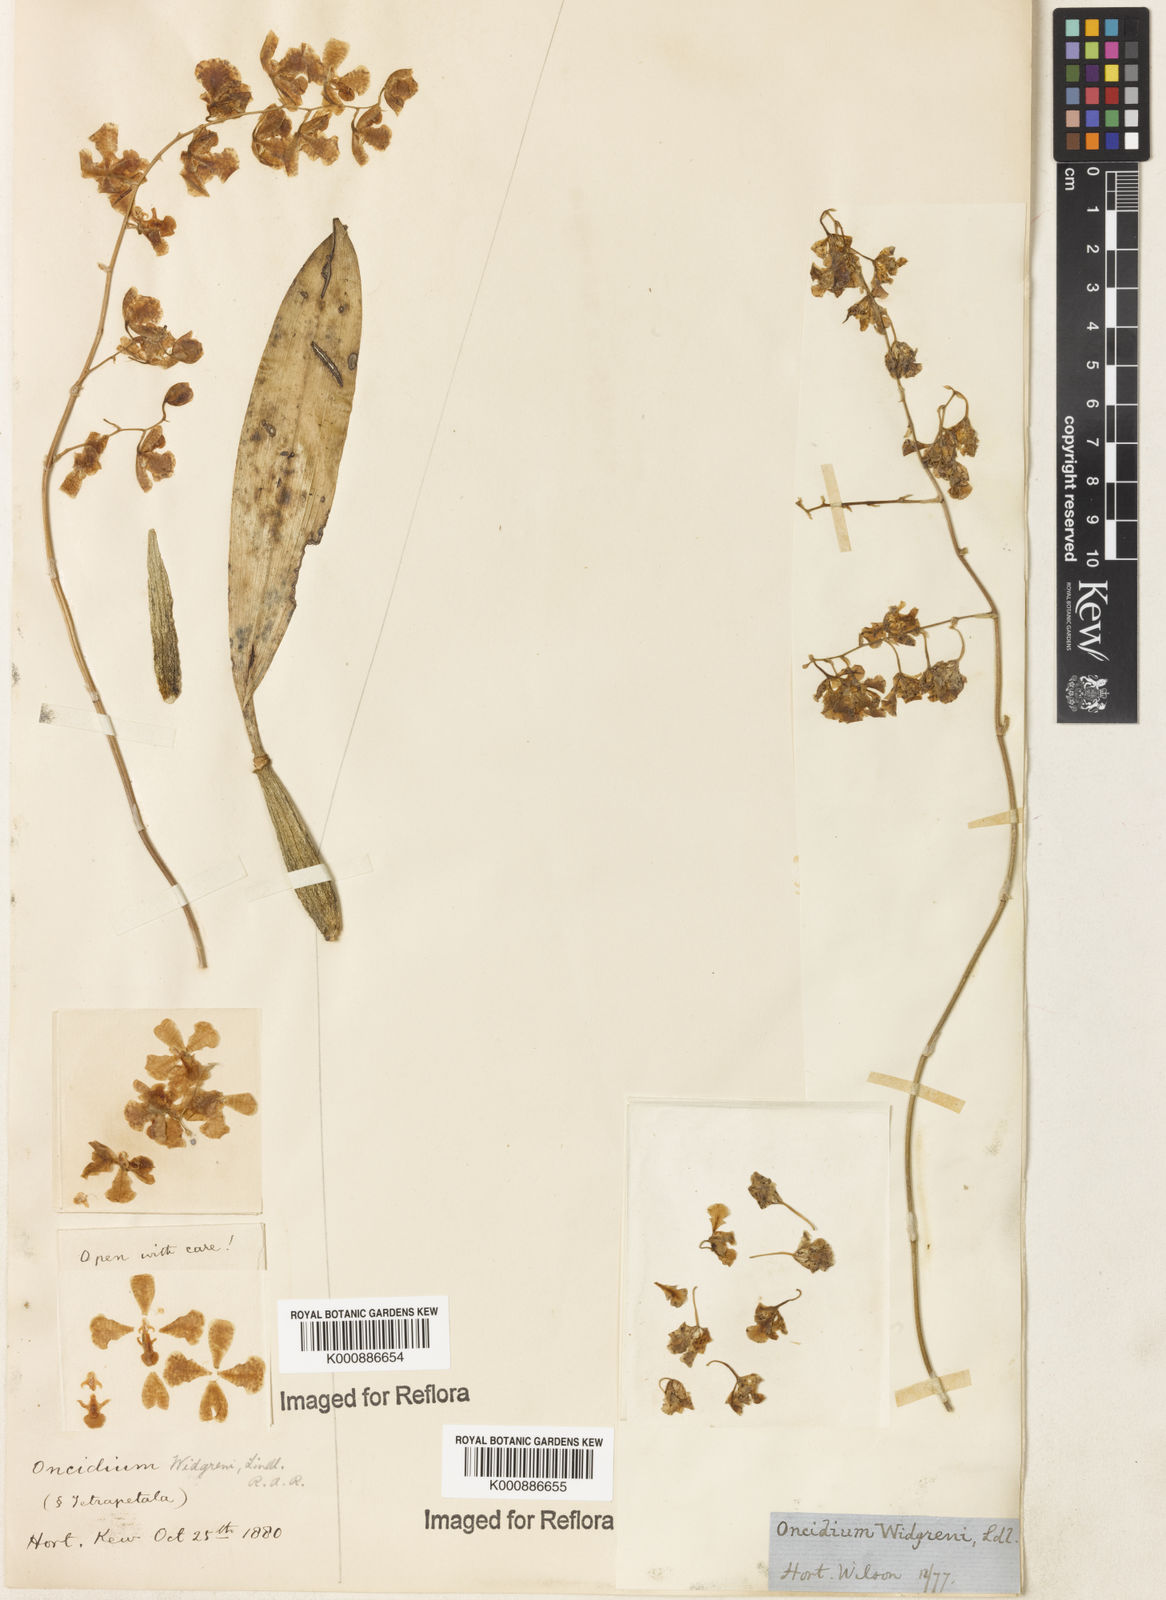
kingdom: Plantae
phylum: Tracheophyta
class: Liliopsida
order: Asparagales
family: Orchidaceae
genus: Gomesa
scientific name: Gomesa widgrenii
